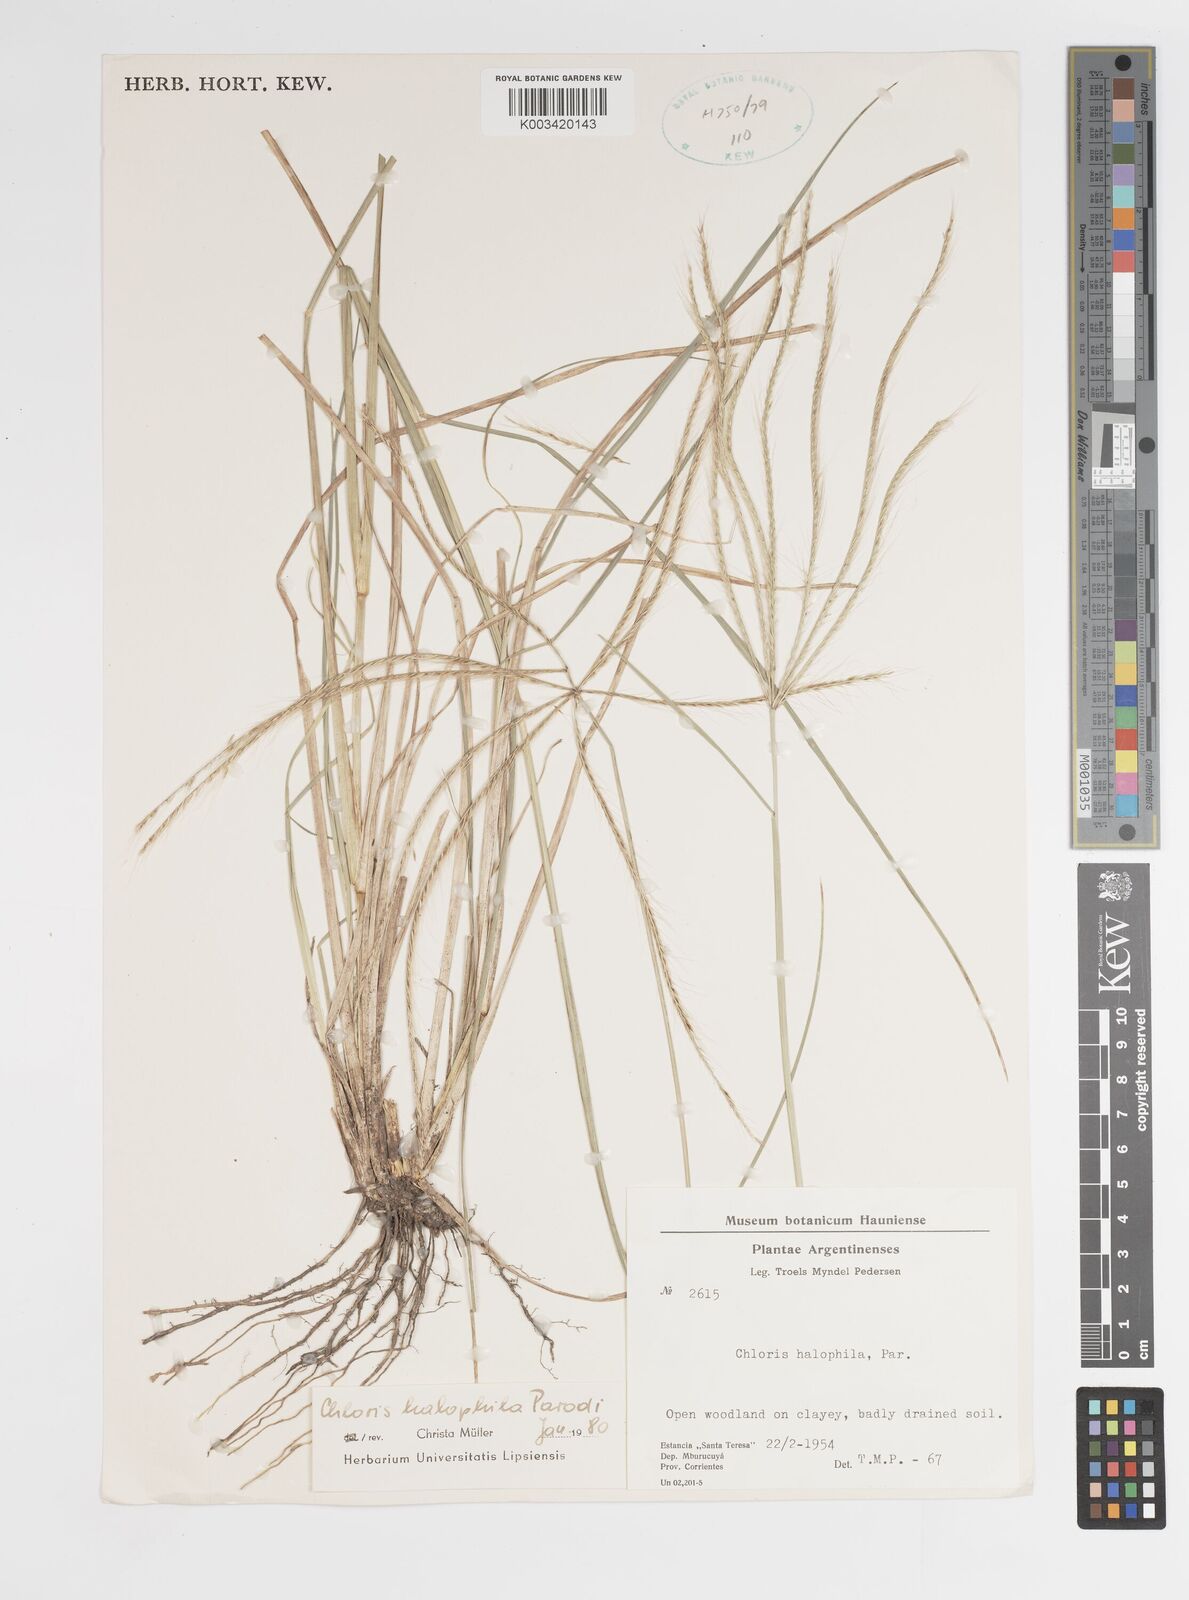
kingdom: Plantae
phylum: Tracheophyta
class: Liliopsida
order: Poales
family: Poaceae
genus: Chloris
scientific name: Chloris halophila
